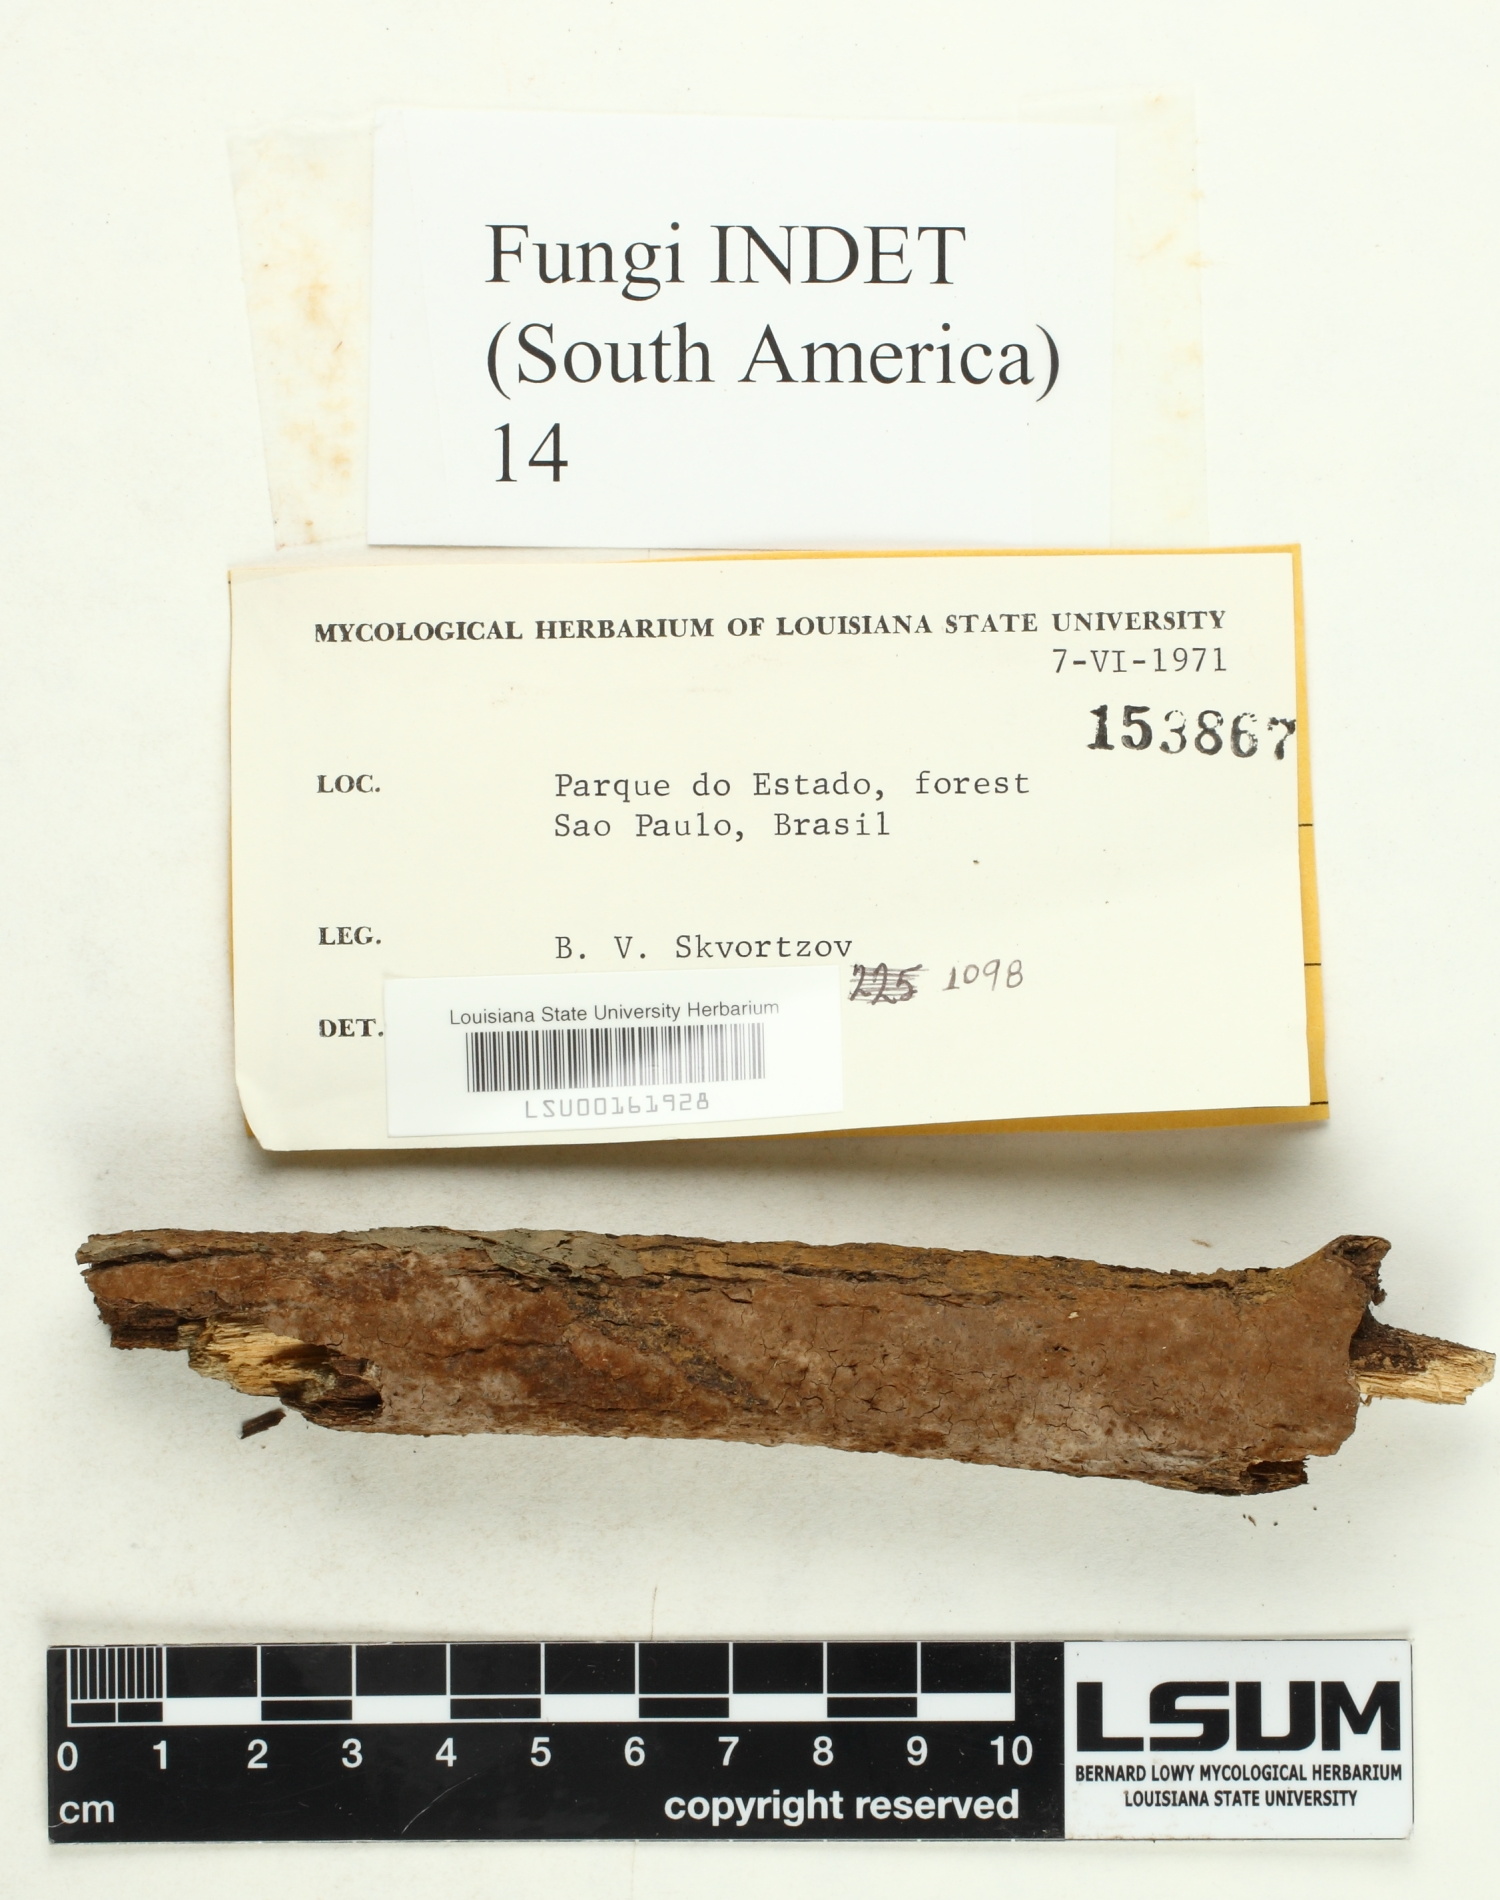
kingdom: Fungi
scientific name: Fungi
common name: Fungi
